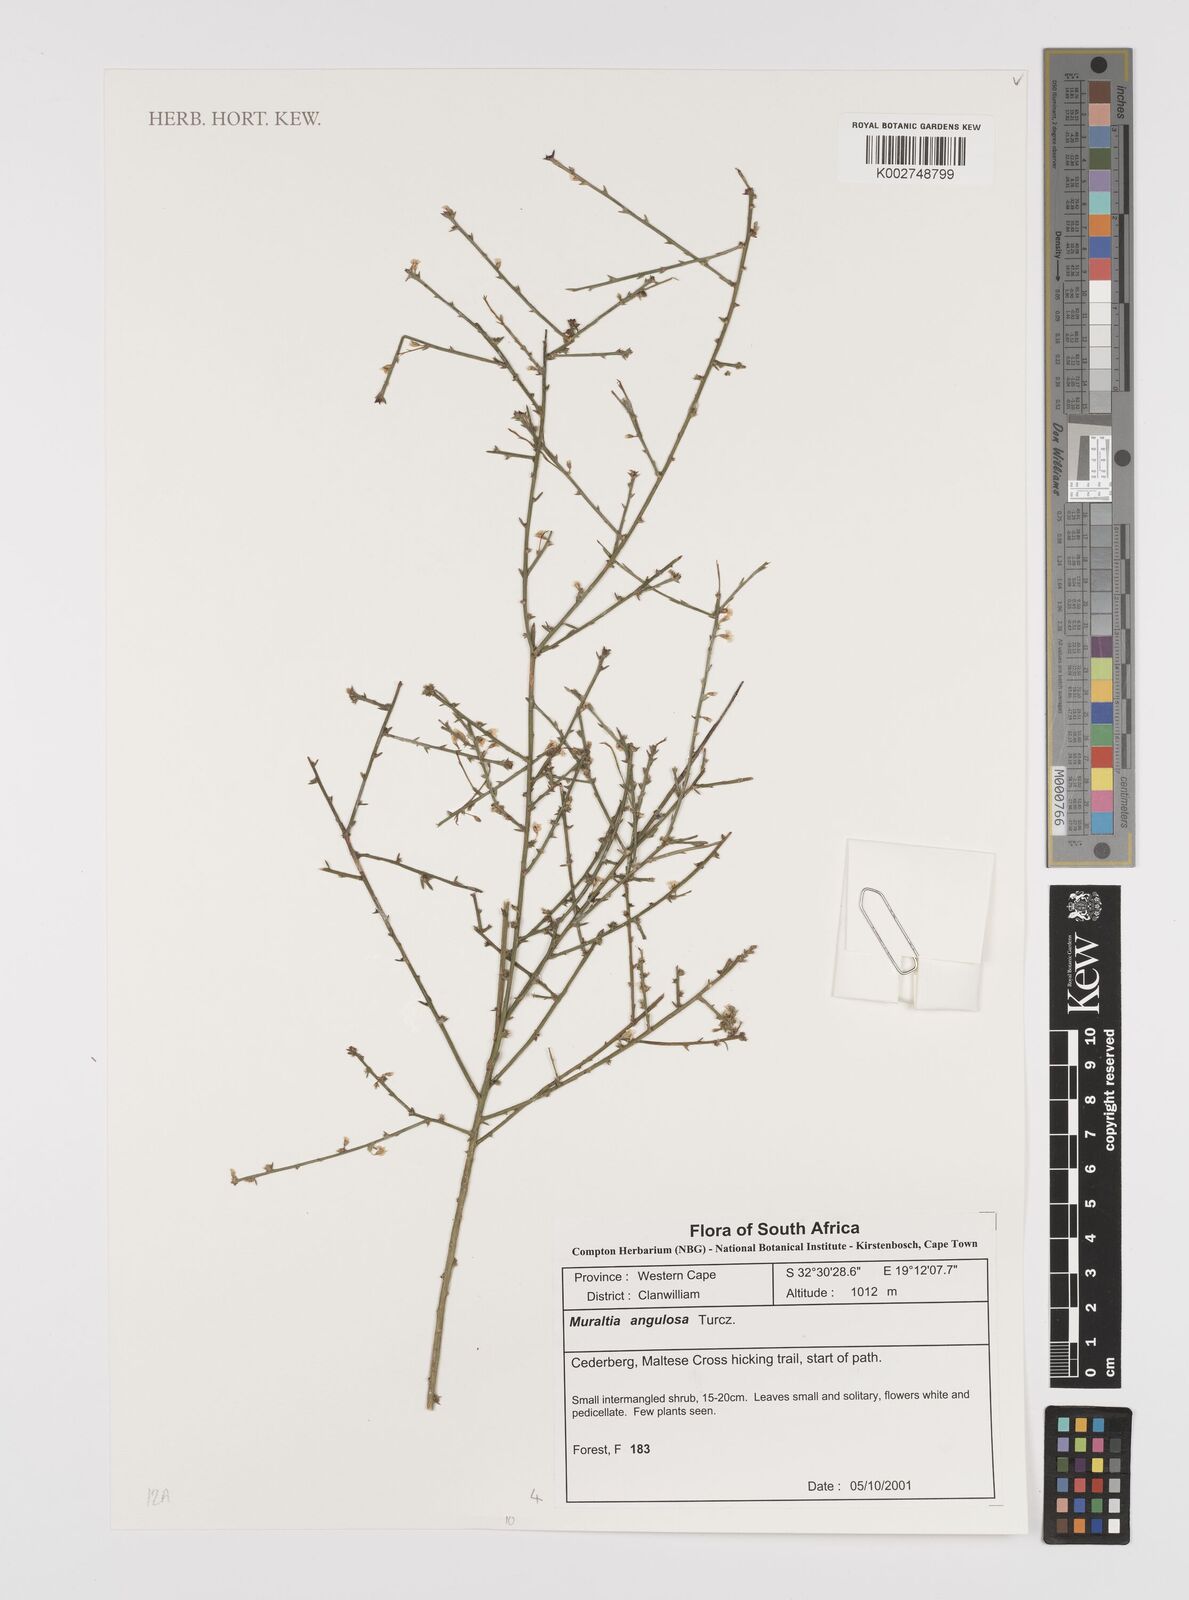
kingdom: Plantae
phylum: Tracheophyta
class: Magnoliopsida
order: Fabales
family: Polygalaceae
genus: Muraltia
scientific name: Muraltia angulosa
